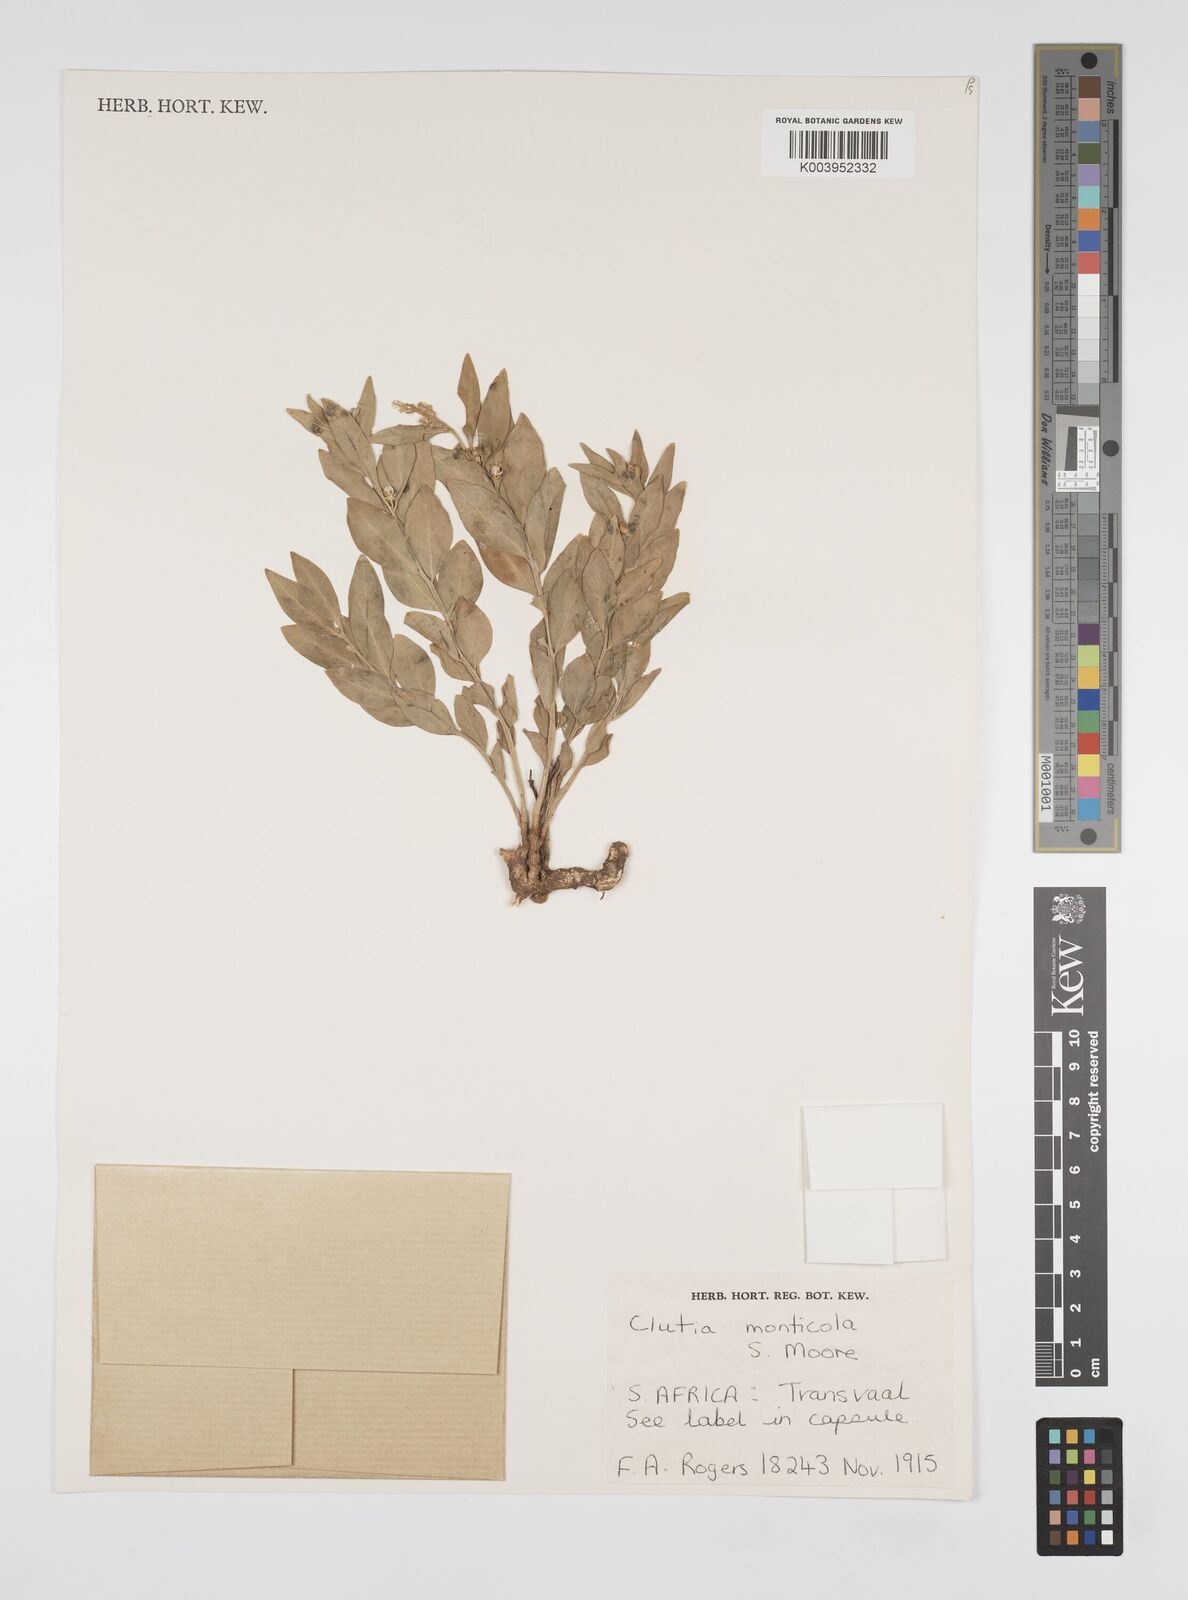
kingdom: Plantae
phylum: Tracheophyta
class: Magnoliopsida
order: Malpighiales
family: Peraceae
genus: Clutia
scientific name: Clutia monticola
